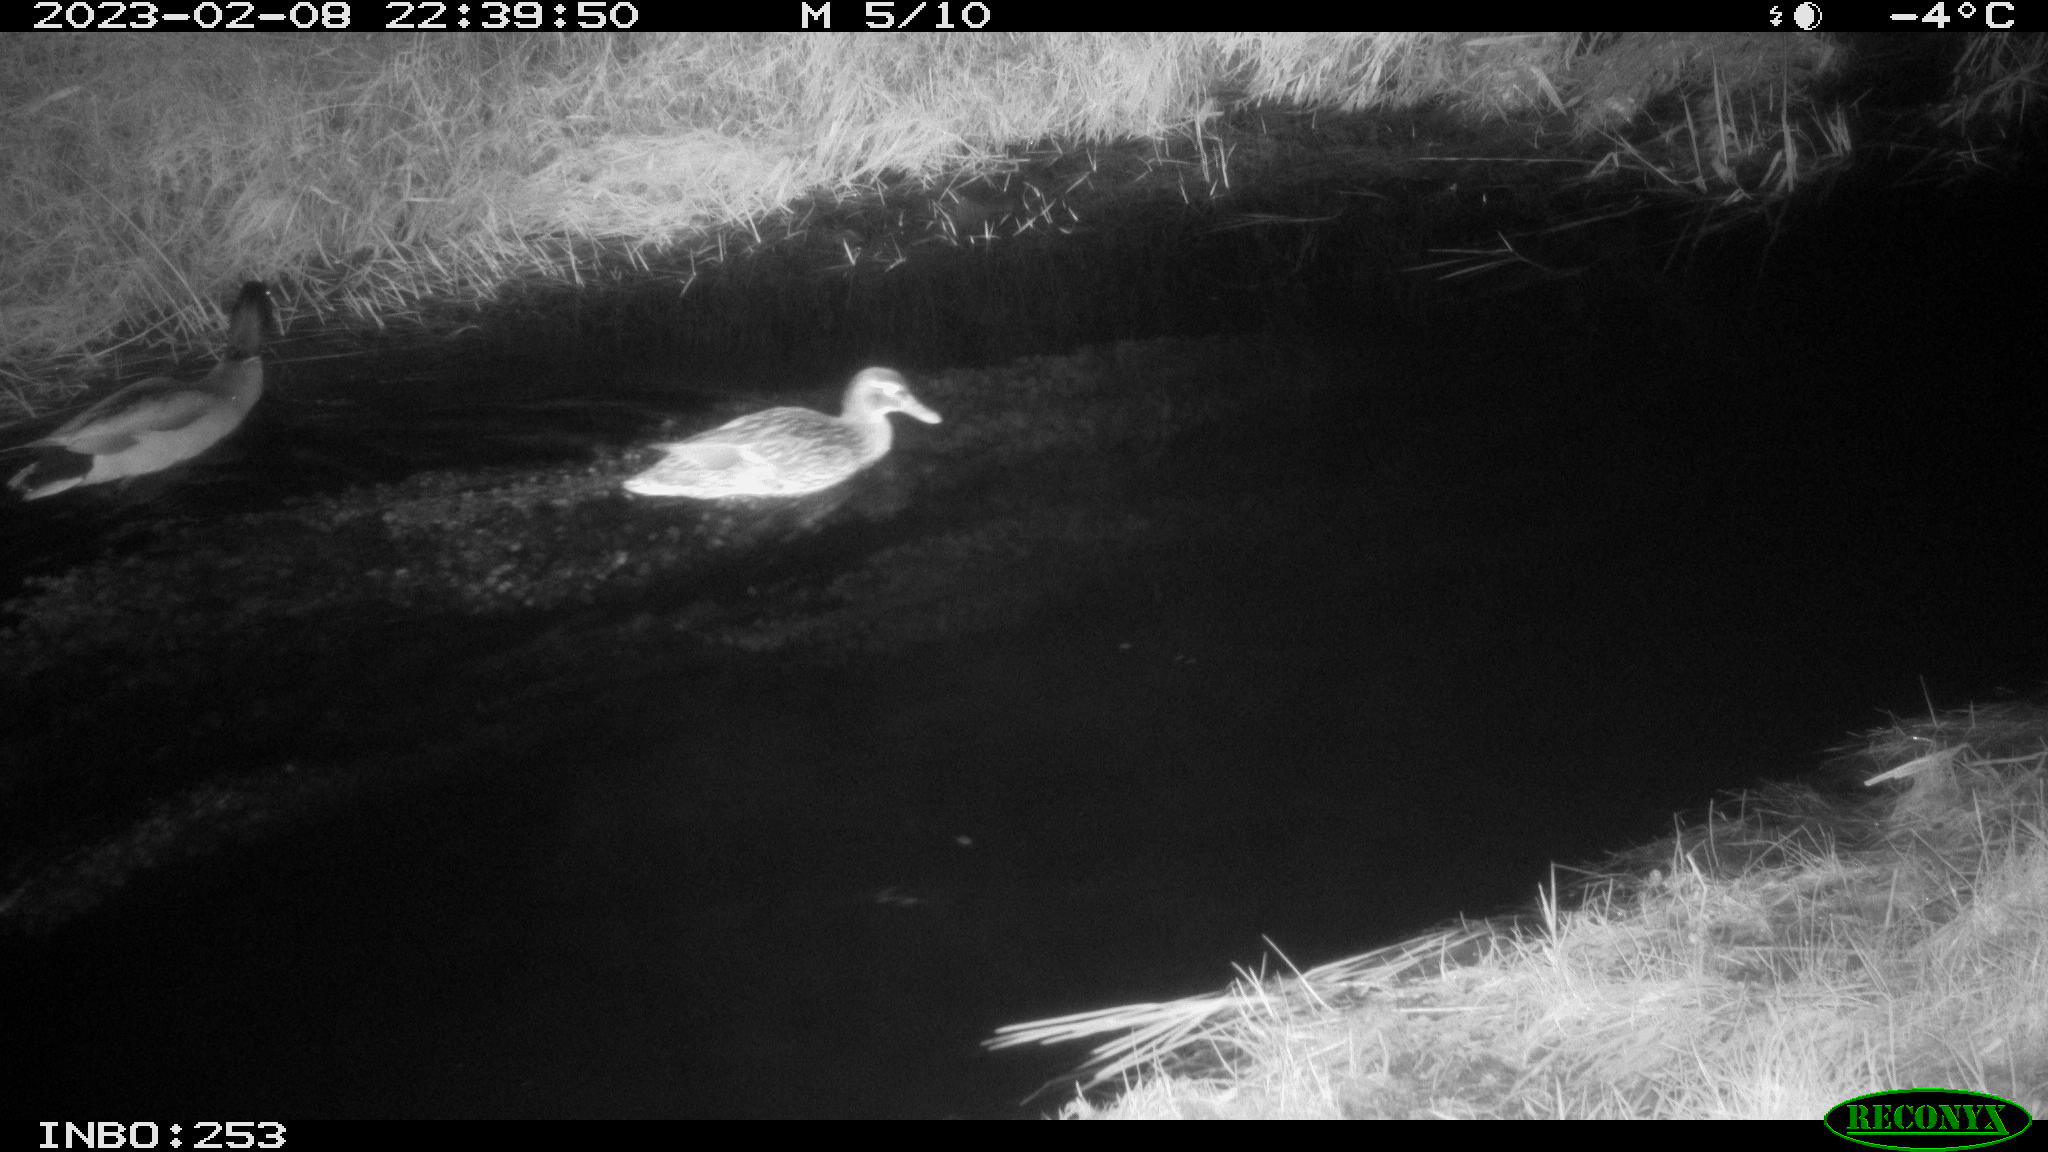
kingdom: Animalia
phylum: Chordata
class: Aves
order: Anseriformes
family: Anatidae
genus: Anas
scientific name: Anas
